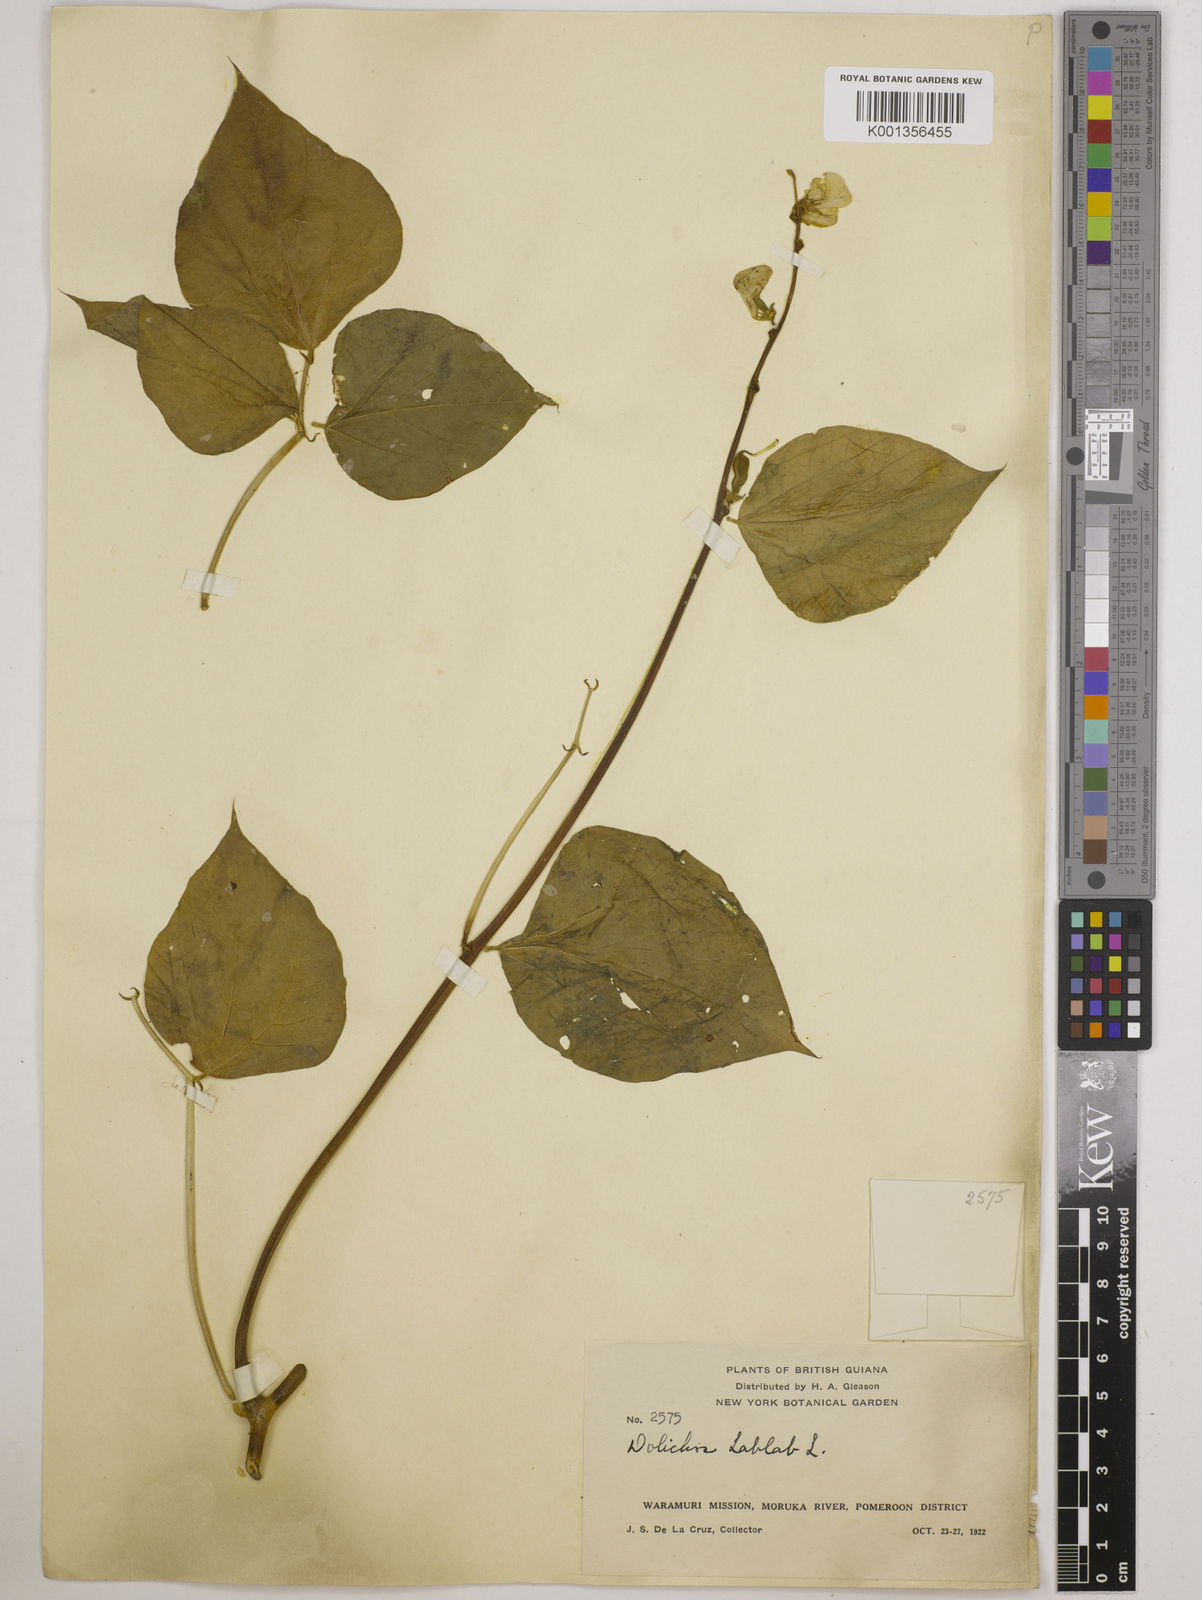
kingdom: Plantae
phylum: Tracheophyta
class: Magnoliopsida
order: Fabales
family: Fabaceae
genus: Lablab
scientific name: Lablab purpureus
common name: Lablab-bean
